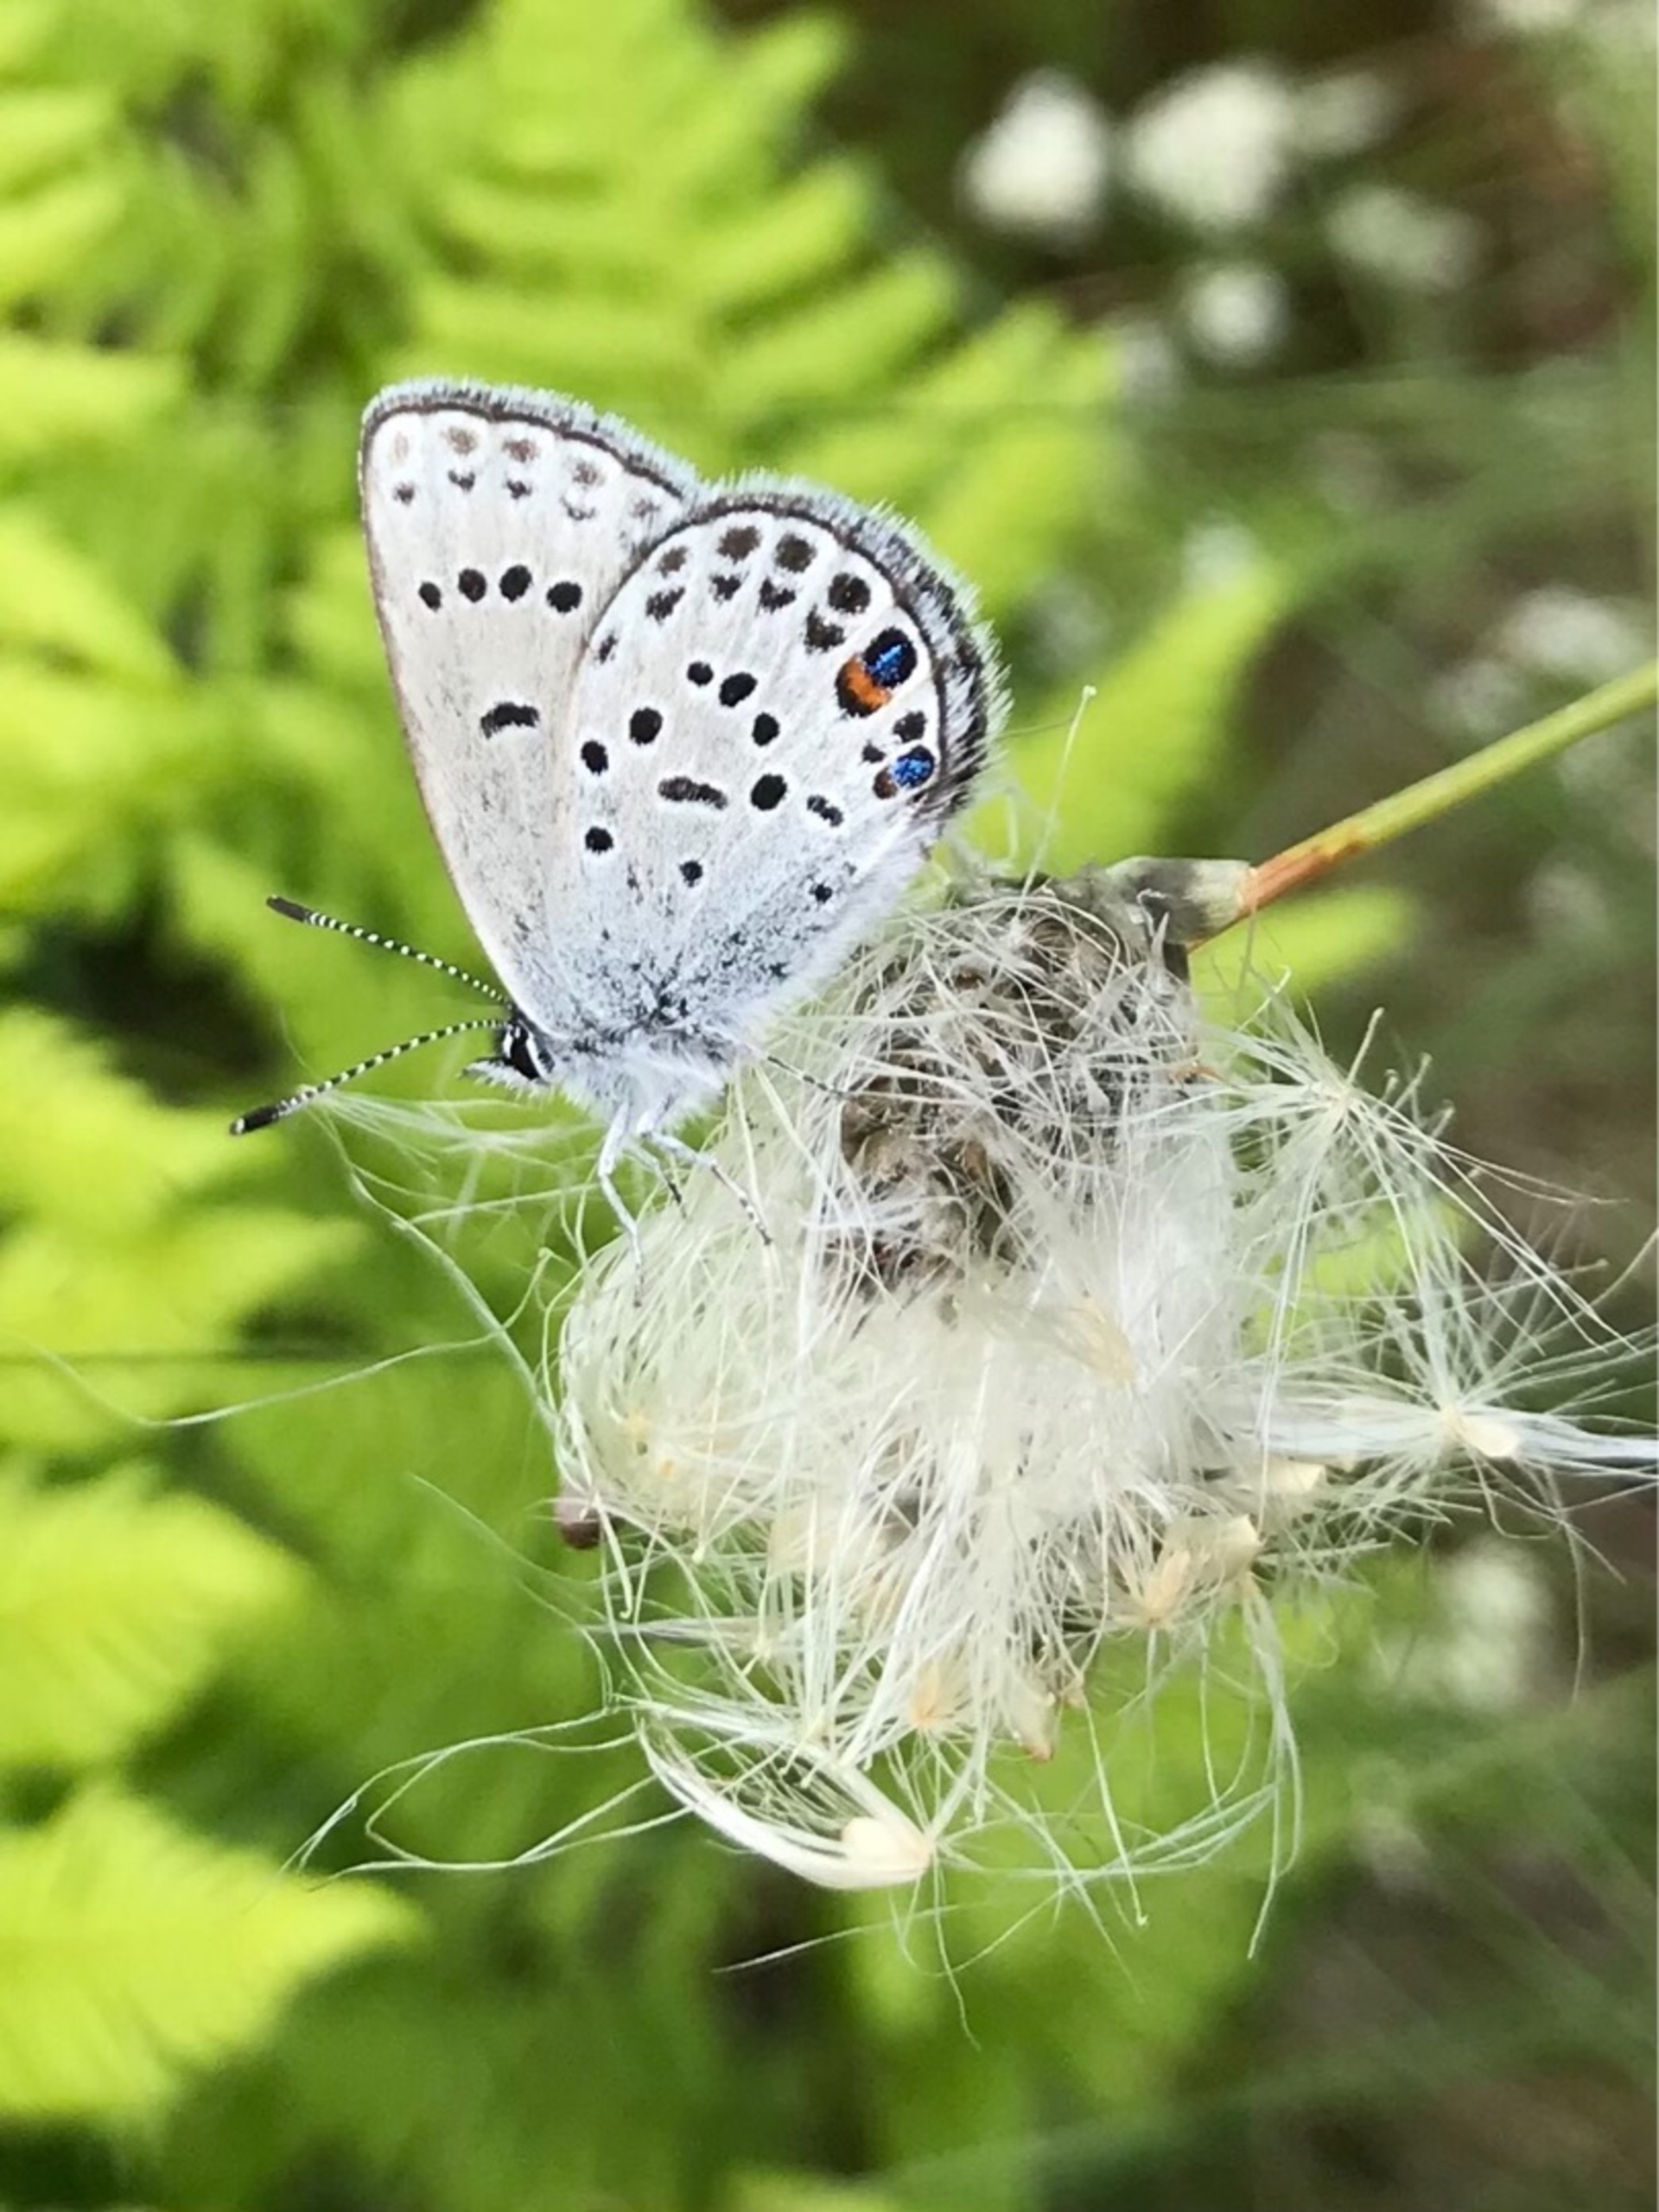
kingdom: Animalia
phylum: Arthropoda
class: Insecta
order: Lepidoptera
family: Lycaenidae
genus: Vacciniina
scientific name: Vacciniina optilete
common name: Bølleblåfugl
